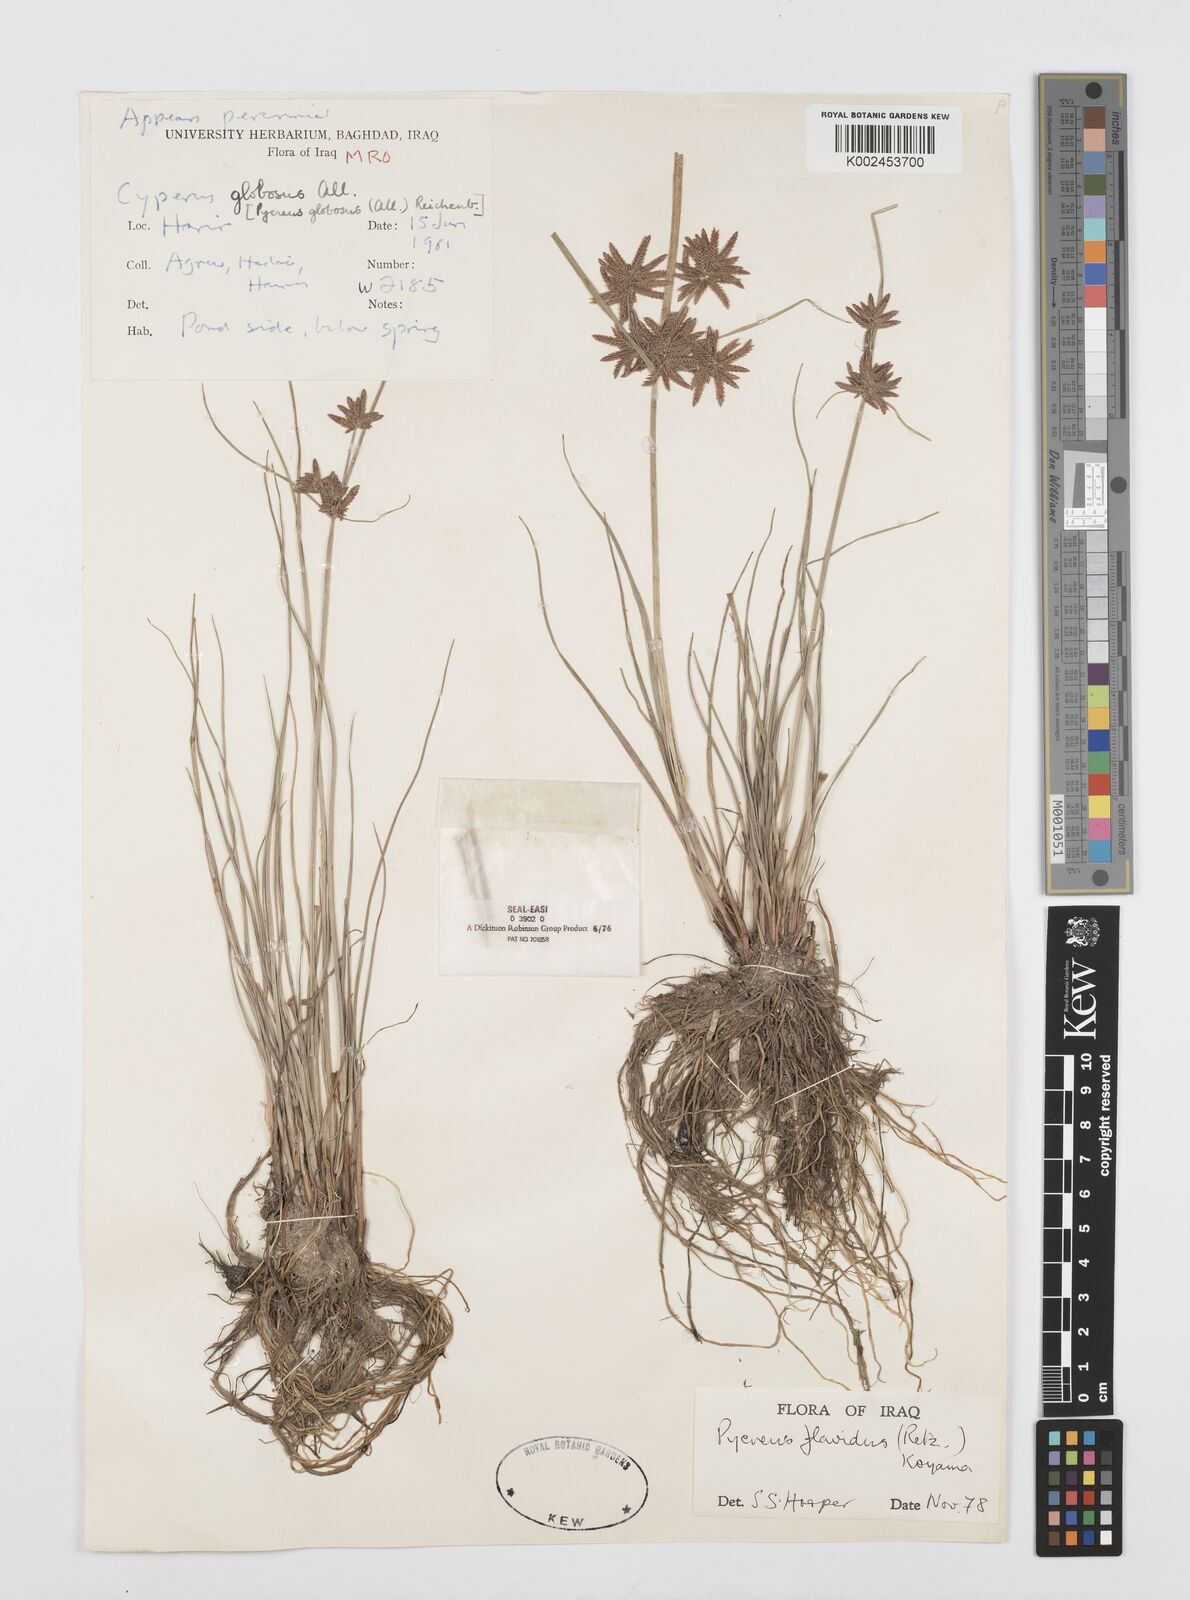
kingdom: Plantae
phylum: Tracheophyta
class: Liliopsida
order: Poales
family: Cyperaceae
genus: Cyperus
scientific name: Cyperus flavidus
